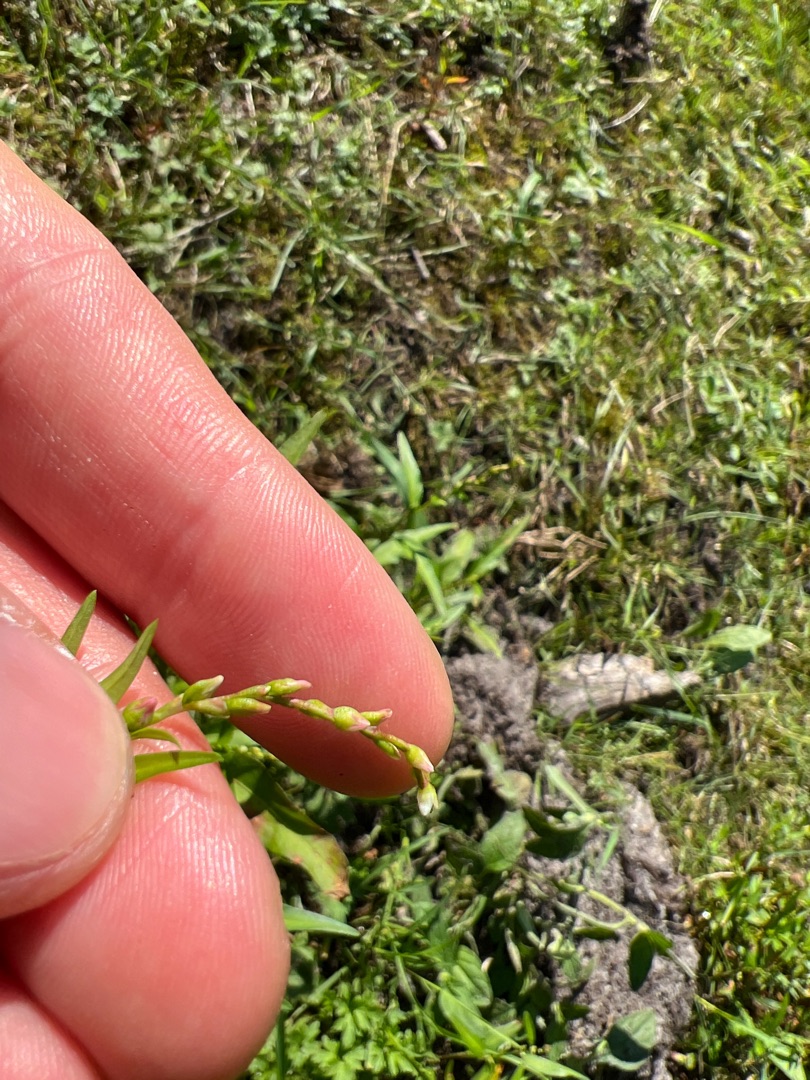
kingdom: Plantae
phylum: Tracheophyta
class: Magnoliopsida
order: Caryophyllales
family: Polygonaceae
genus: Persicaria
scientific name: Persicaria hydropiper
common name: Bidende pileurt
